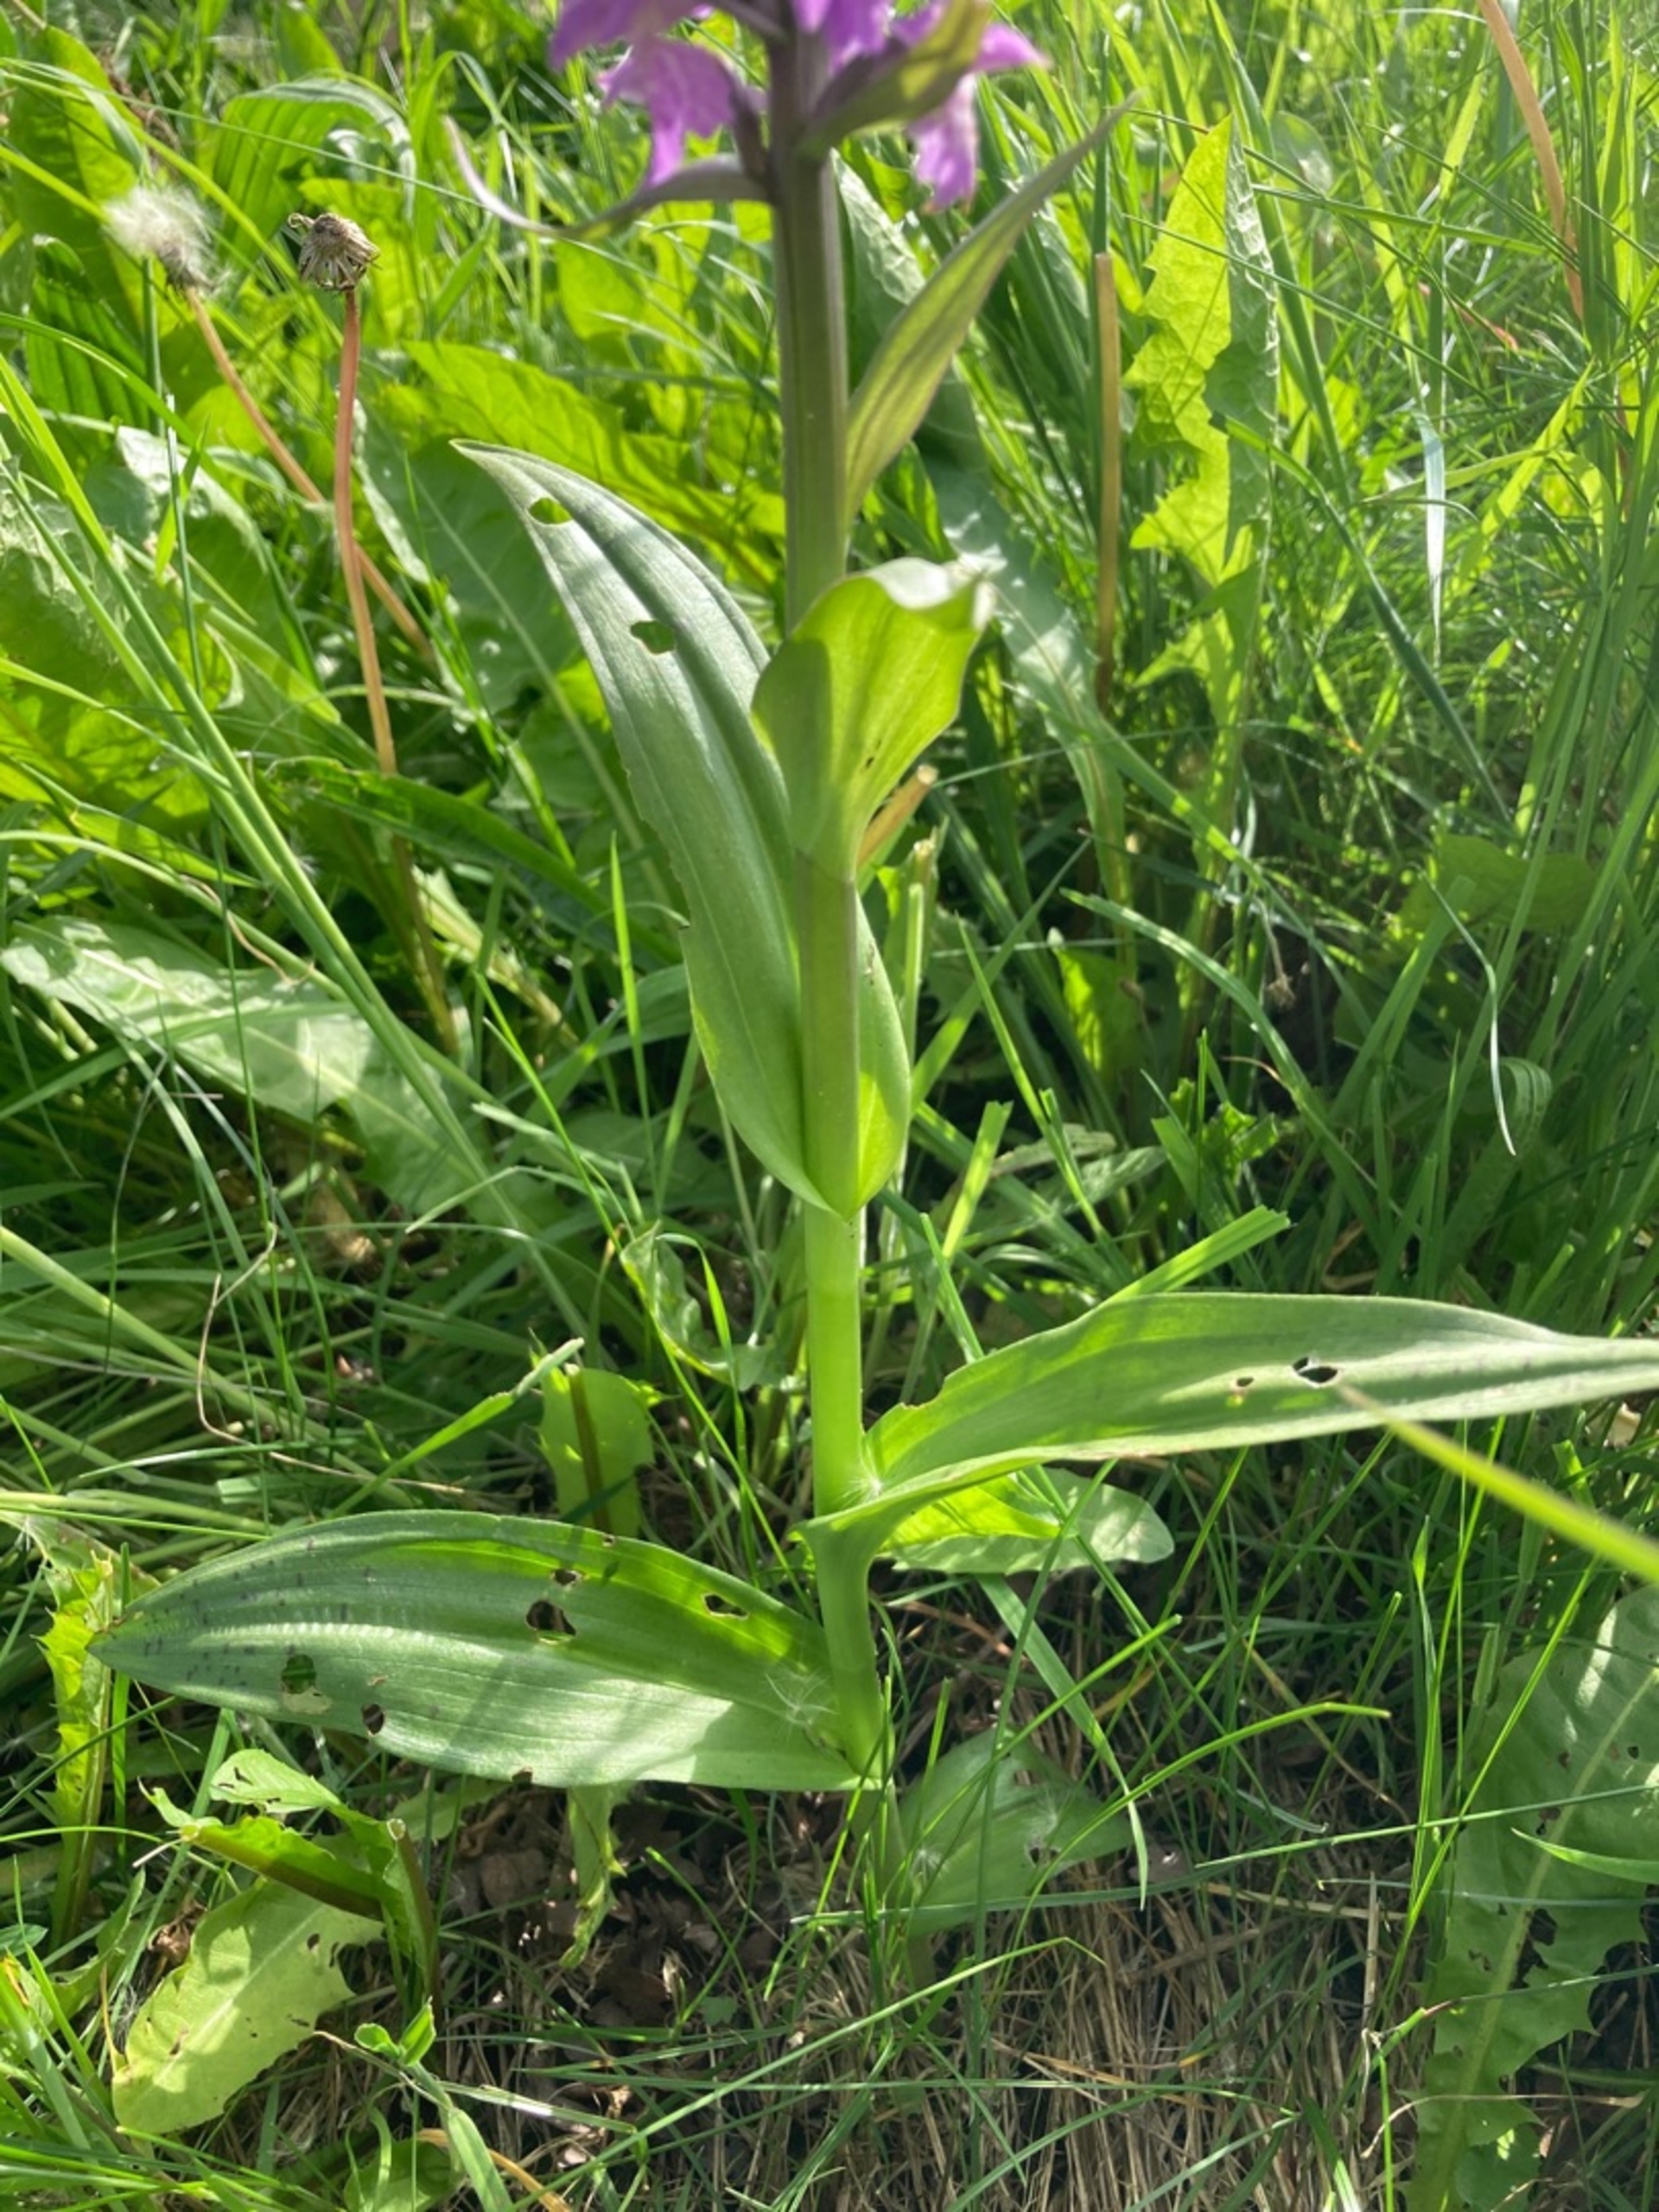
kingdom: Plantae
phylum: Tracheophyta
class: Liliopsida
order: Asparagales
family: Orchidaceae
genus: Dactylorhiza
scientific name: Dactylorhiza majalis
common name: Maj-gøgeurt
